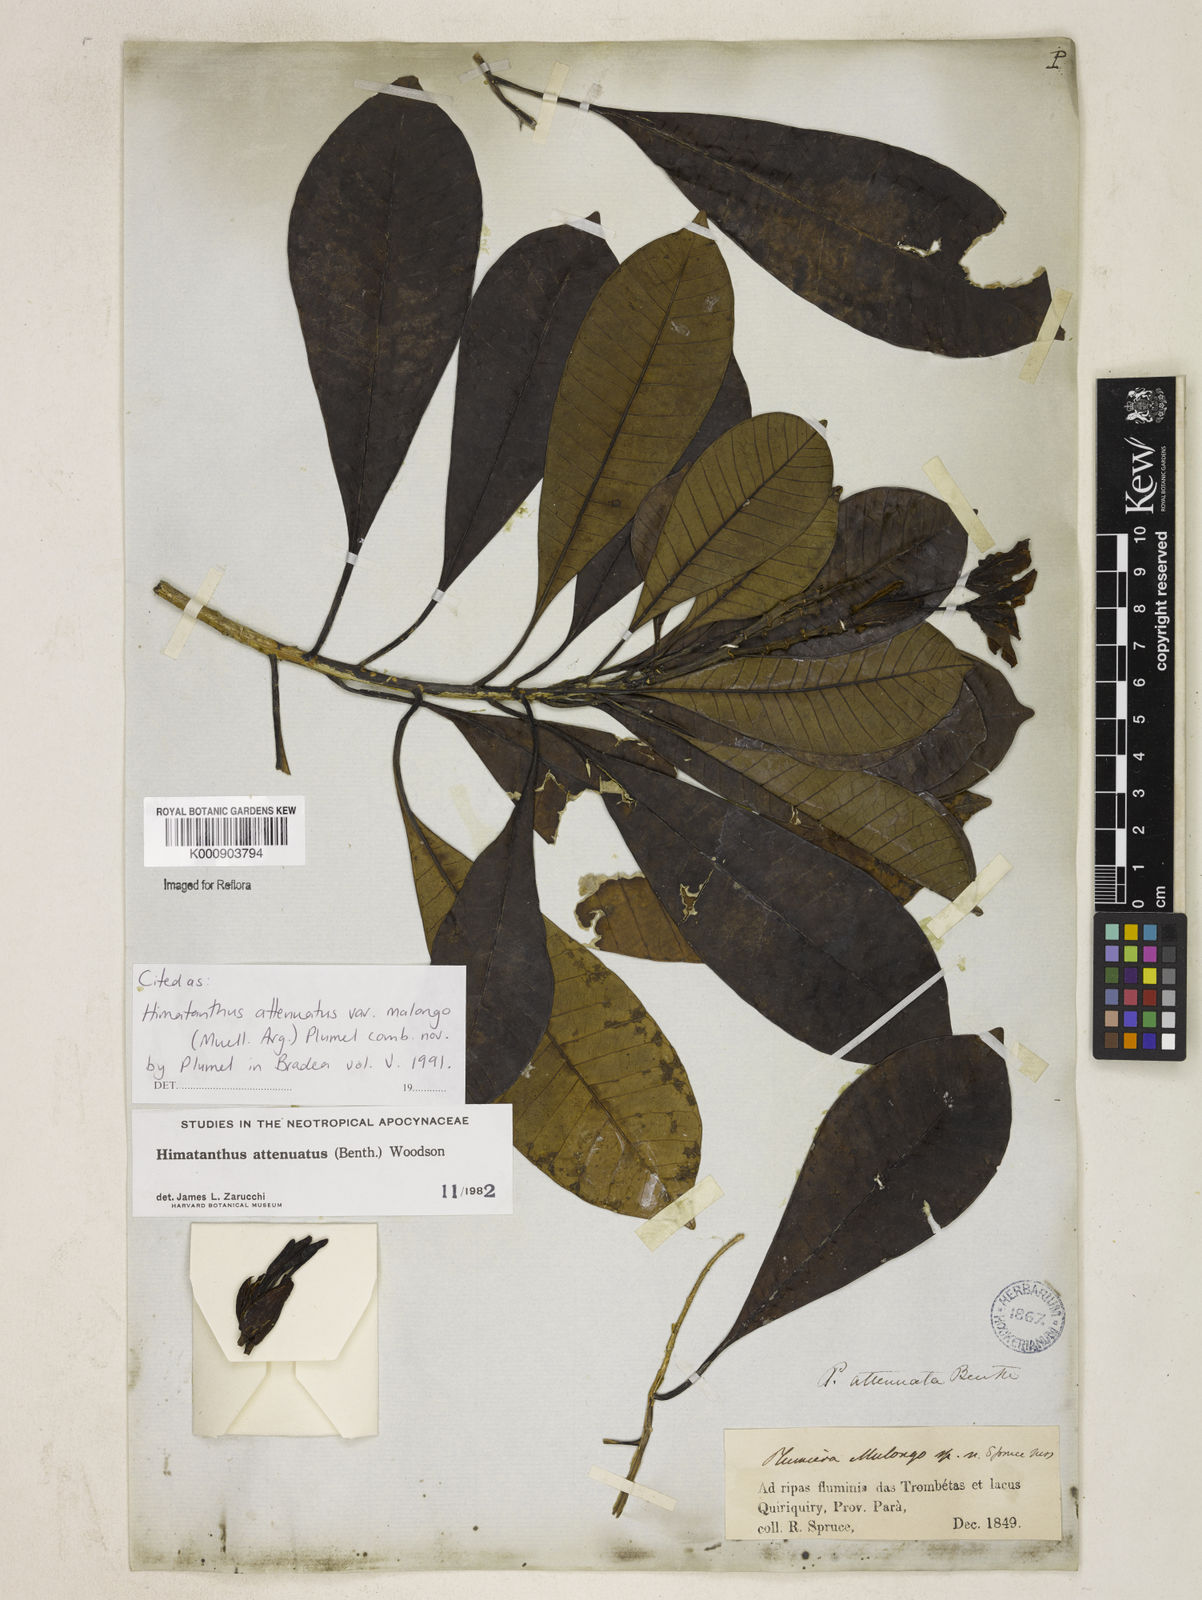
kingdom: Plantae
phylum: Tracheophyta
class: Magnoliopsida
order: Gentianales
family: Apocynaceae
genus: Himatanthus
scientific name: Himatanthus
